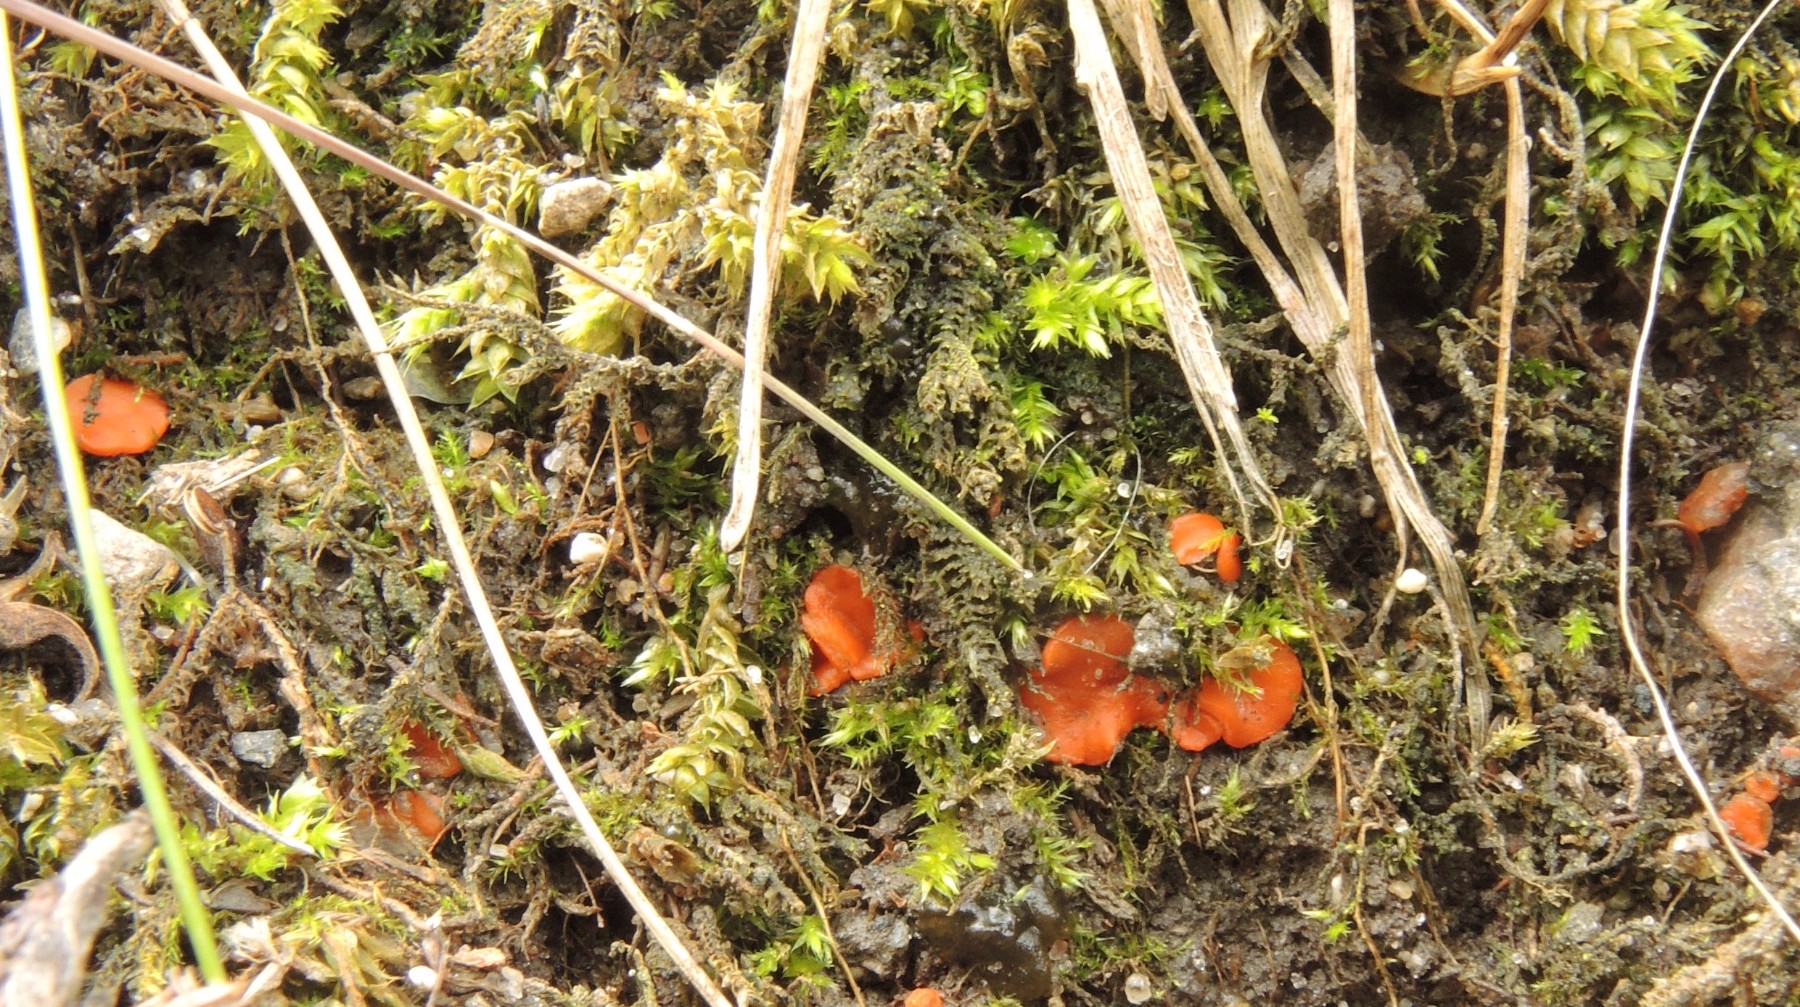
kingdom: Fungi
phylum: Ascomycota
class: Pezizomycetes
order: Pezizales
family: Pulvinulaceae
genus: Pulvinula
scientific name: Pulvinula miltina
